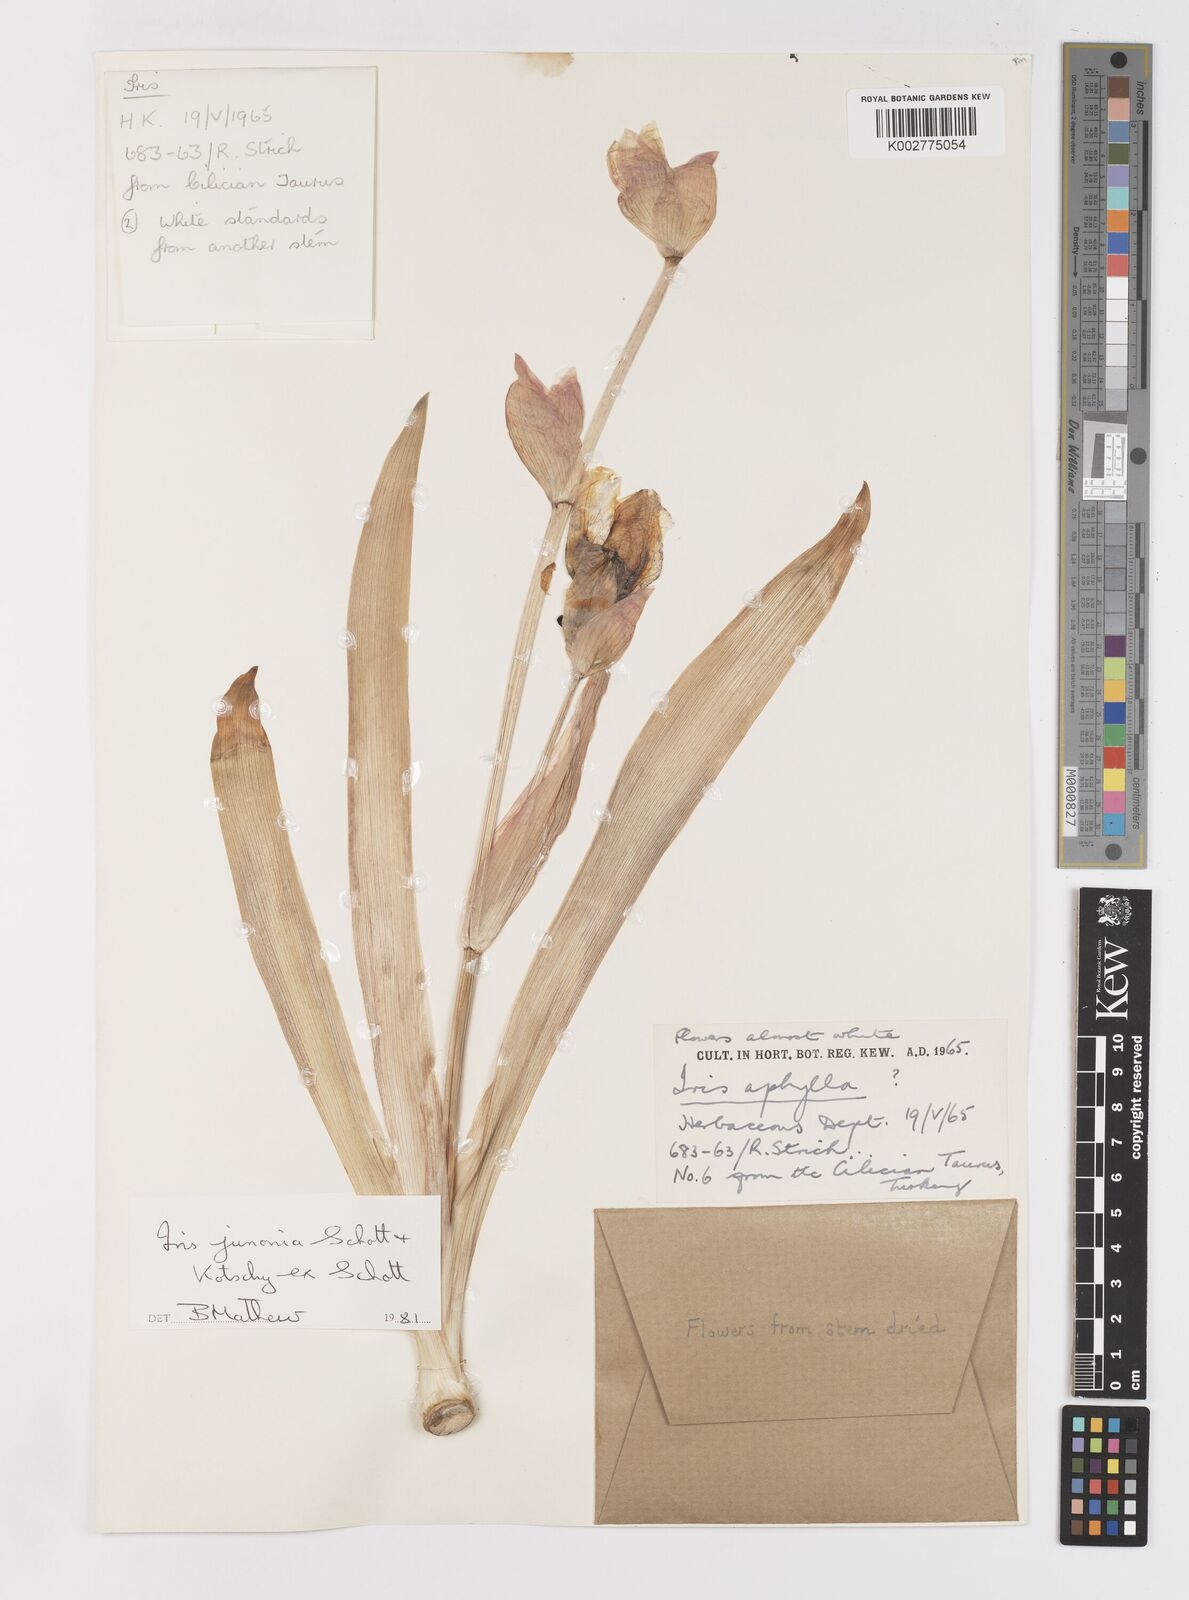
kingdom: Plantae
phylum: Tracheophyta
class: Liliopsida
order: Asparagales
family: Iridaceae
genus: Iris
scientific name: Iris junonia
